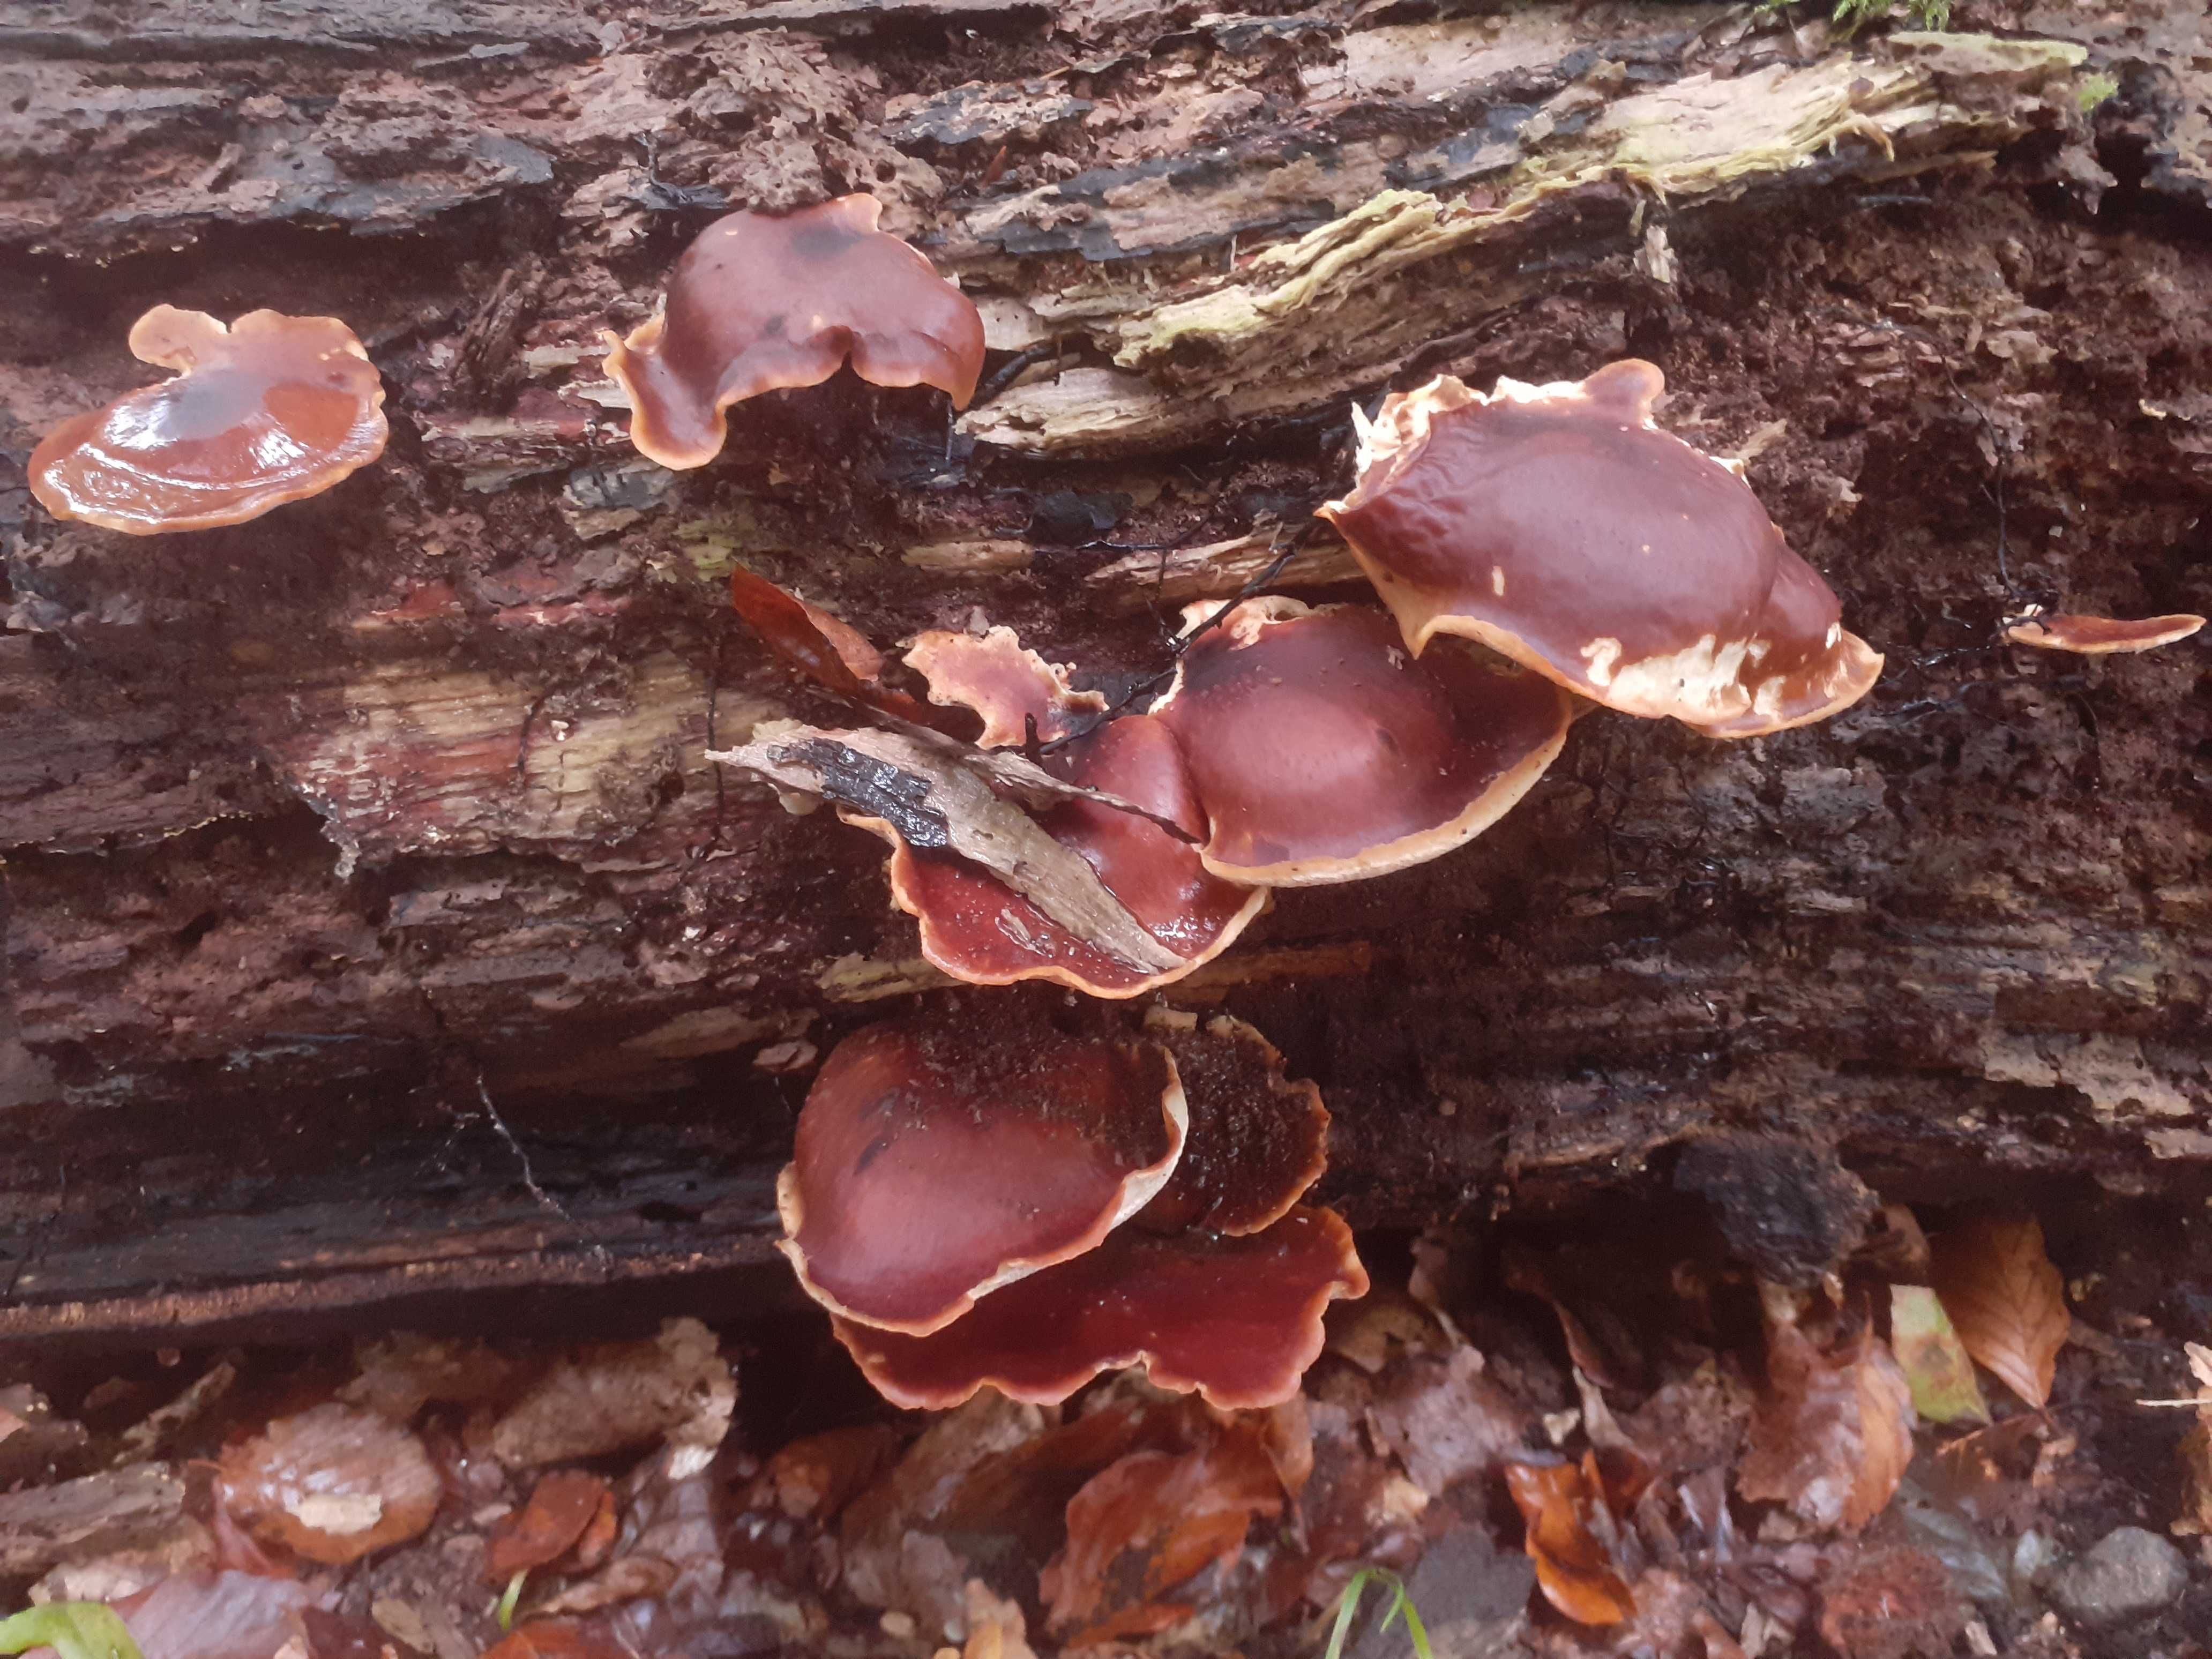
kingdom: Fungi
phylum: Basidiomycota
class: Agaricomycetes
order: Polyporales
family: Polyporaceae
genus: Picipes
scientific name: Picipes badius
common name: kastaniebrun stilkporesvamp
